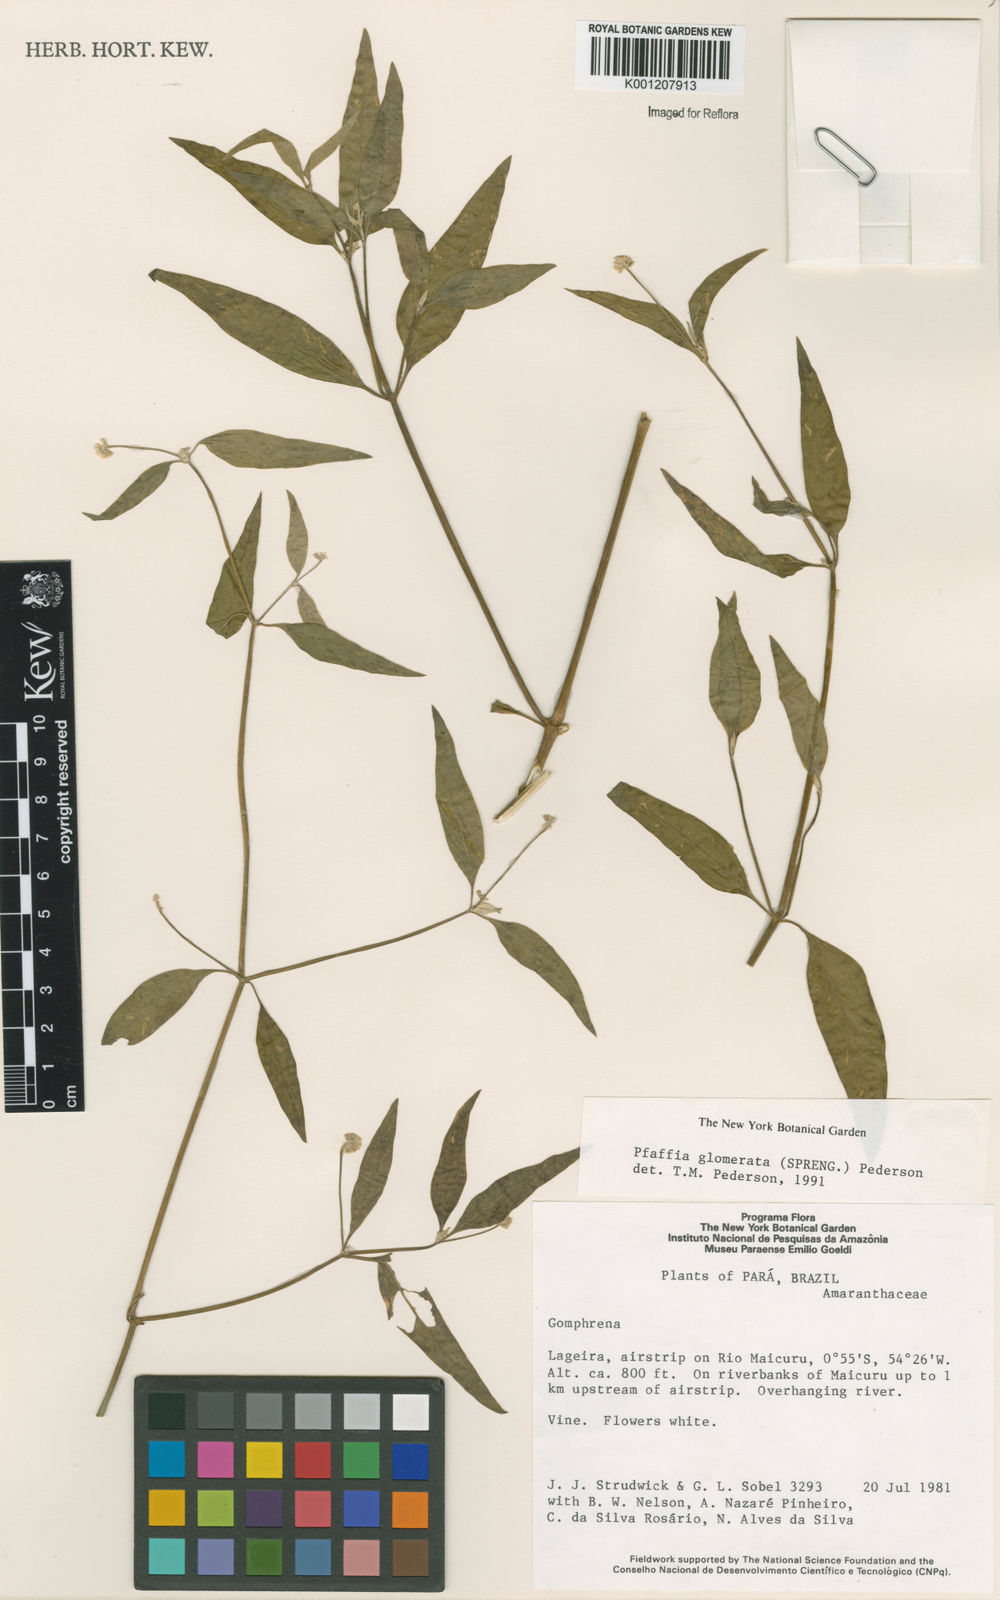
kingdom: Plantae
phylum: Tracheophyta
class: Magnoliopsida
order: Caryophyllales
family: Amaranthaceae
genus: Pfaffia
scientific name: Pfaffia glomerata
